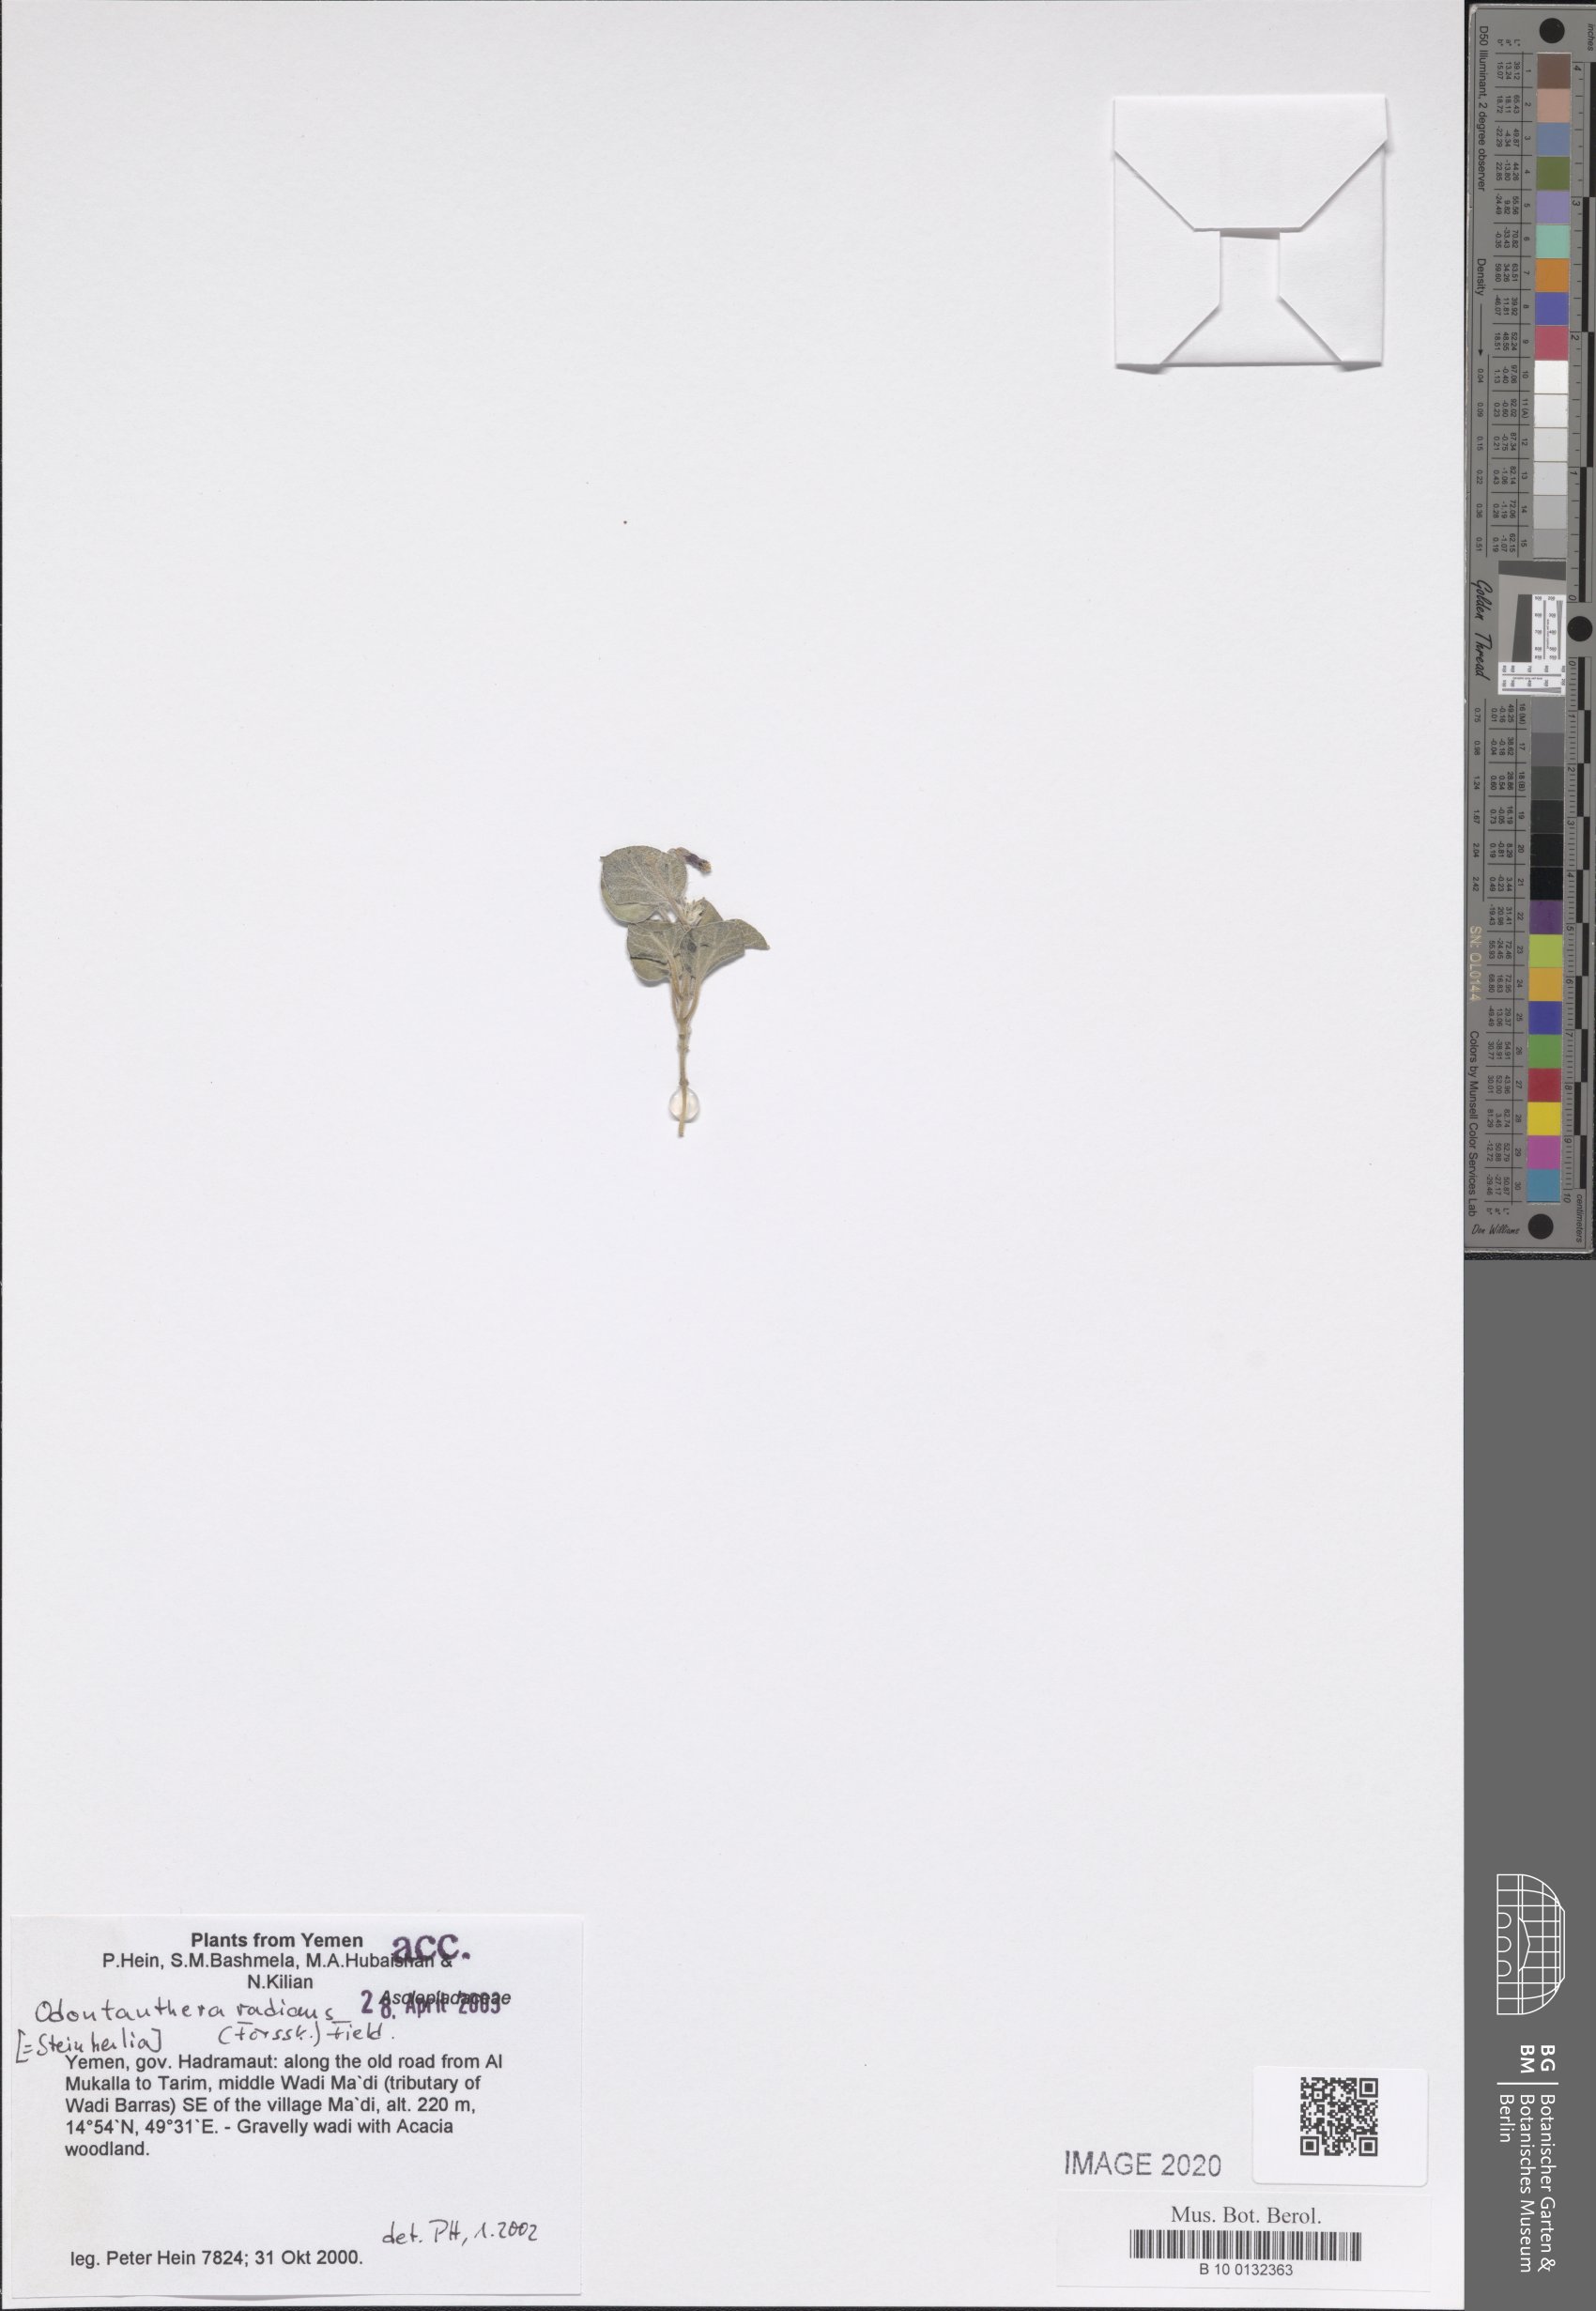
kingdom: Plantae
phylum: Tracheophyta
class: Magnoliopsida
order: Gentianales
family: Apocynaceae
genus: Cynanchum
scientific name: Cynanchum radians
